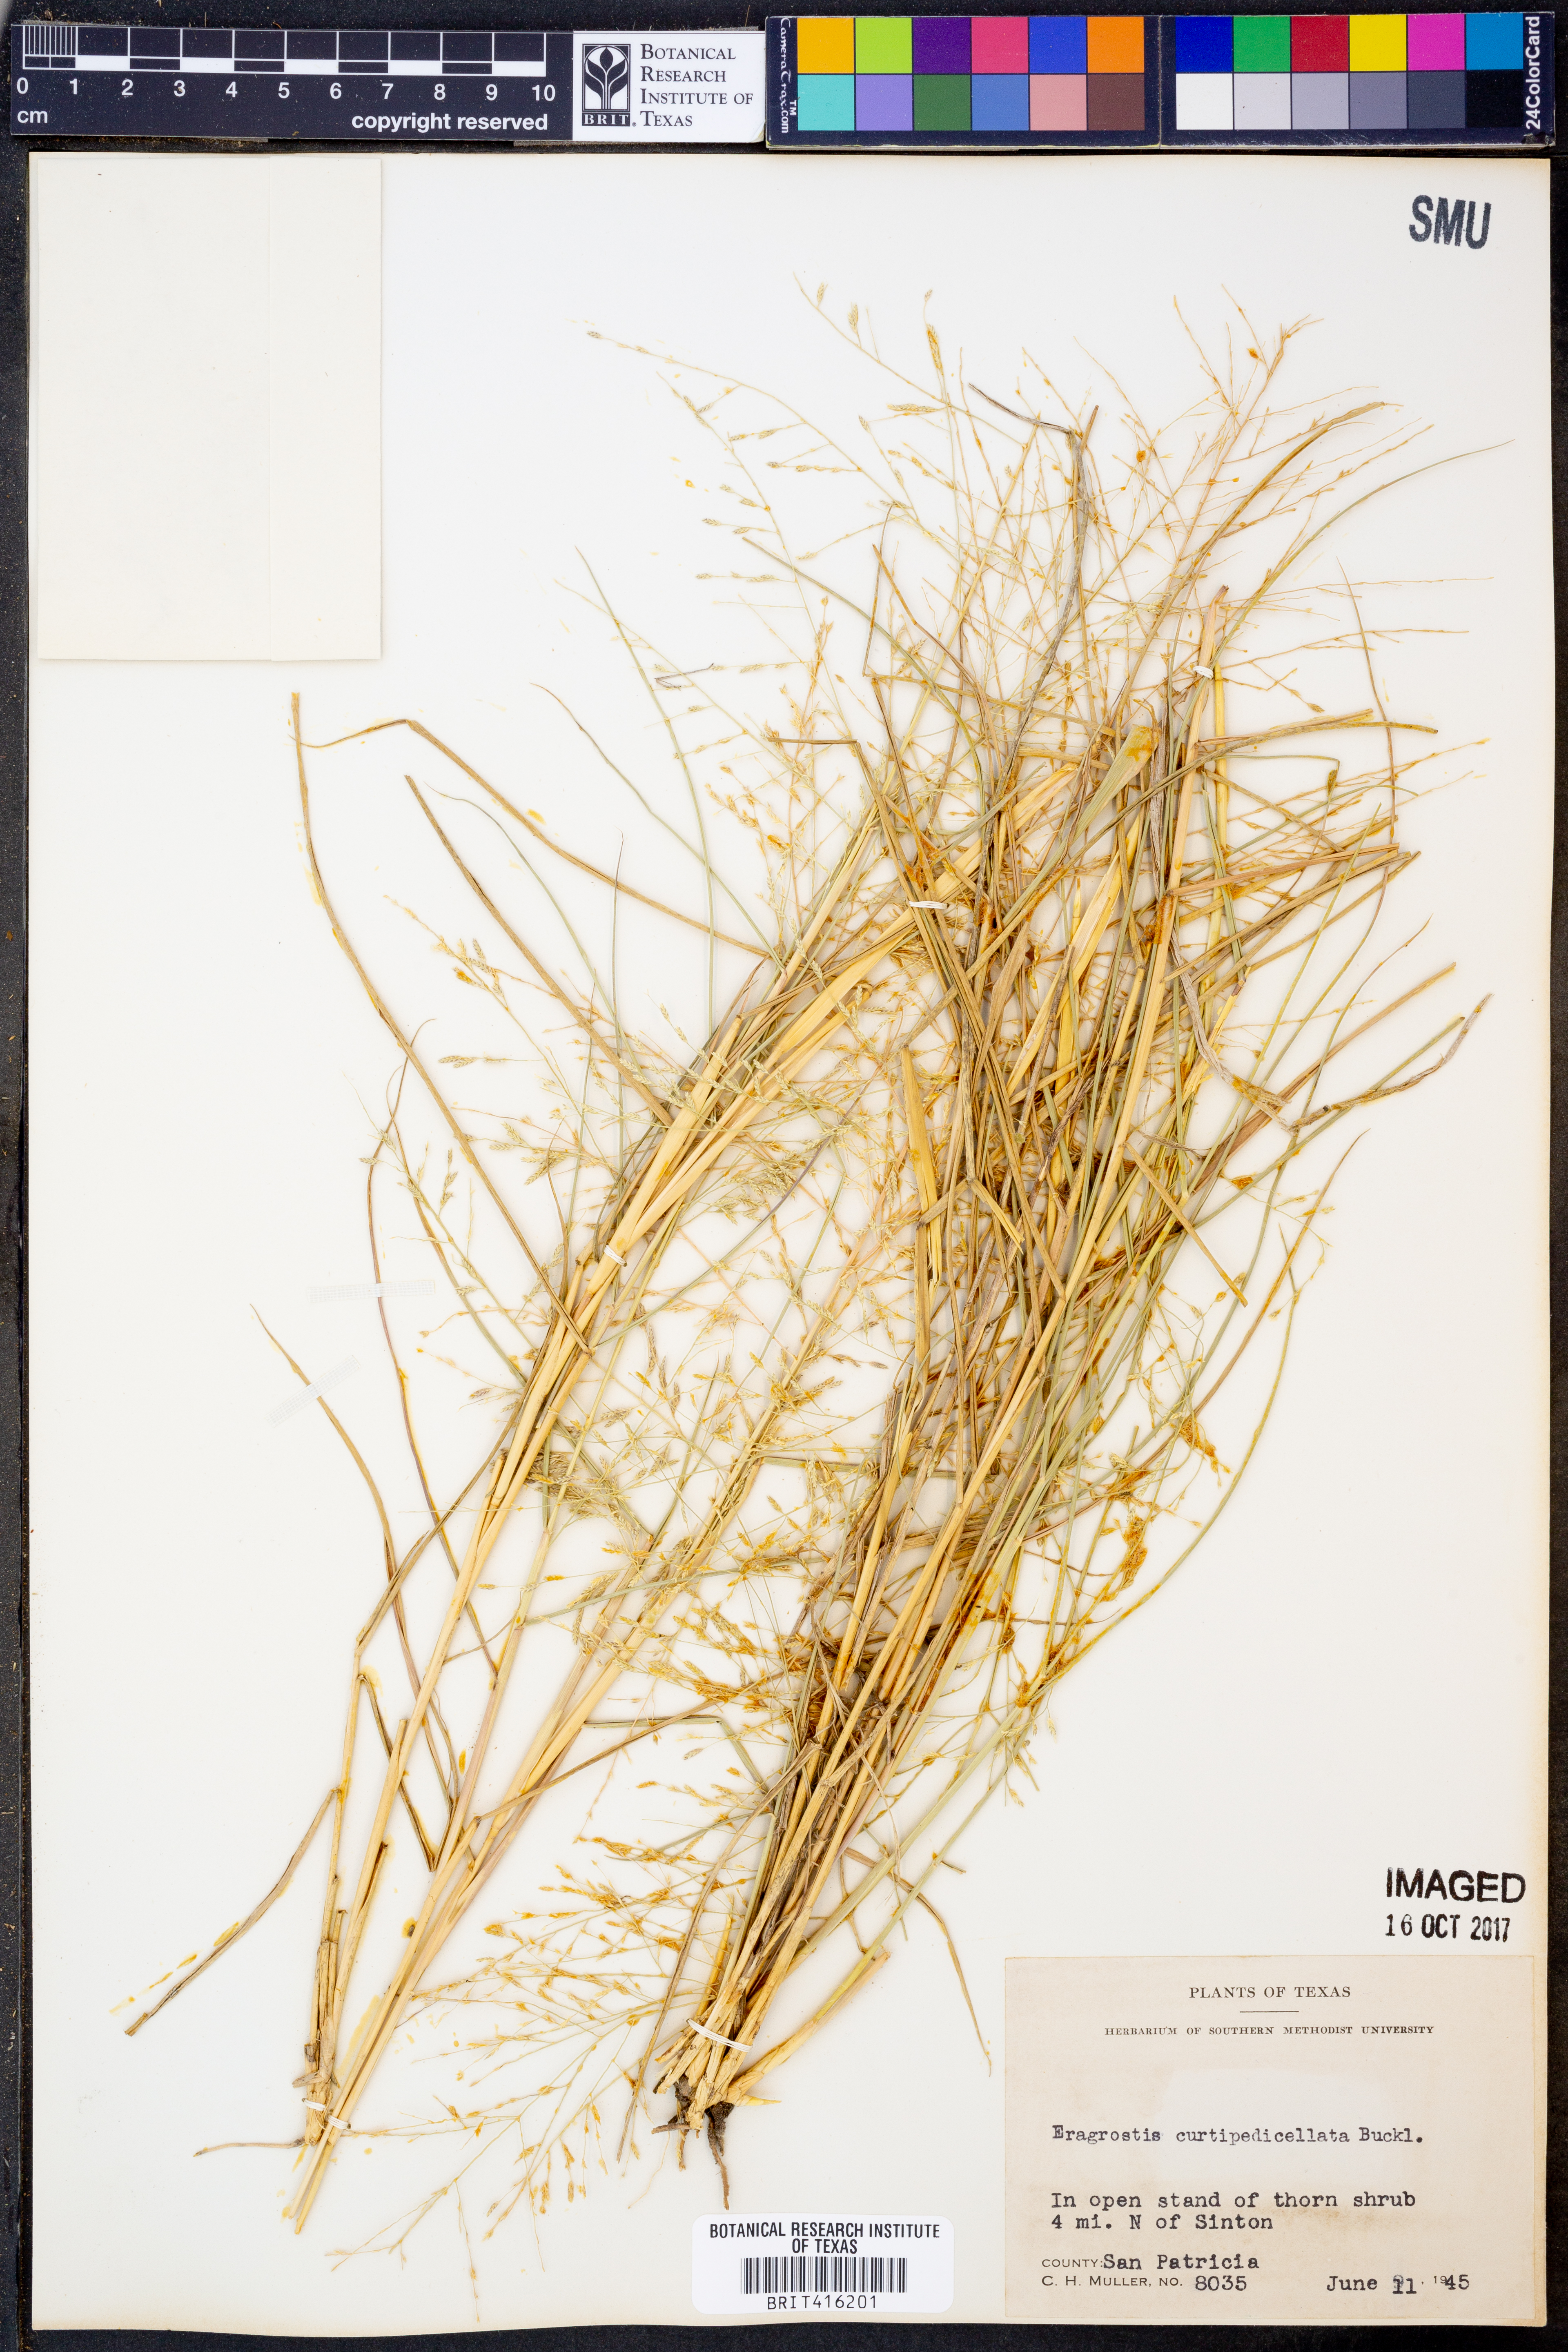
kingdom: Plantae
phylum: Tracheophyta
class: Liliopsida
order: Poales
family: Poaceae
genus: Eragrostis
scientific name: Eragrostis curtipedicellata
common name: Gummy love grass
